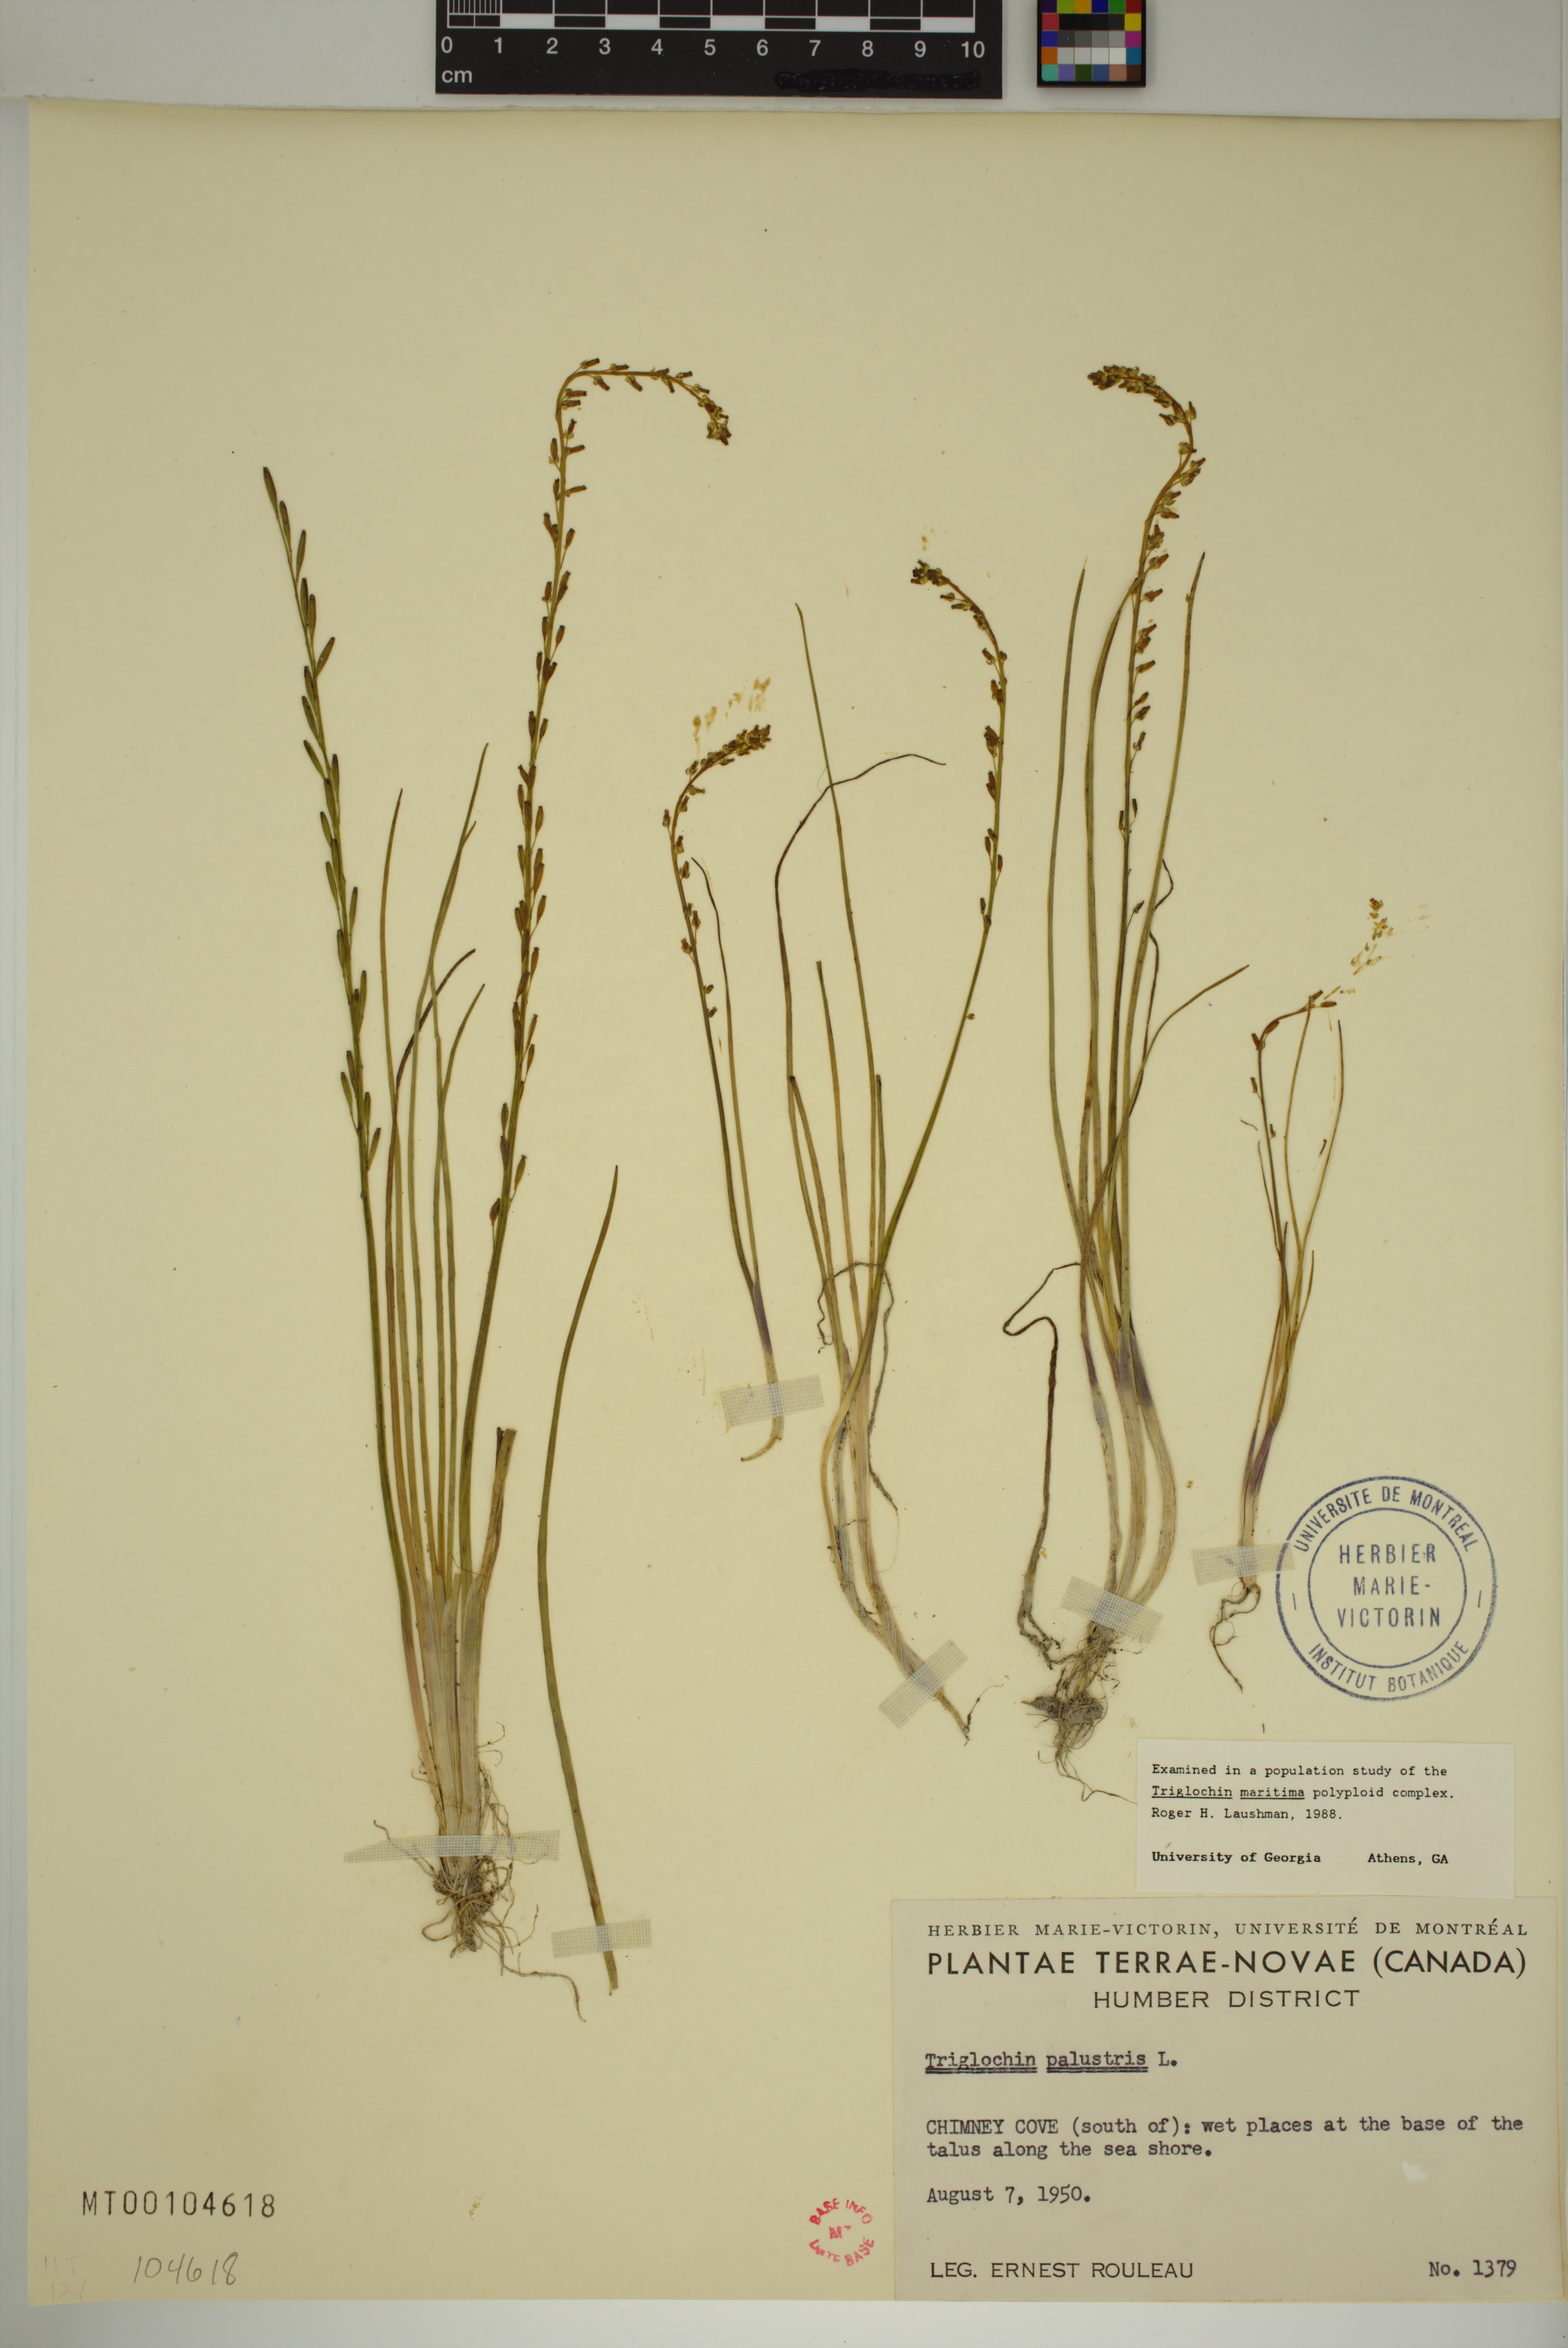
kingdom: Plantae
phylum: Tracheophyta
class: Liliopsida
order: Alismatales
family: Juncaginaceae
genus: Triglochin
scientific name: Triglochin palustris
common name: Marsh arrowgrass
